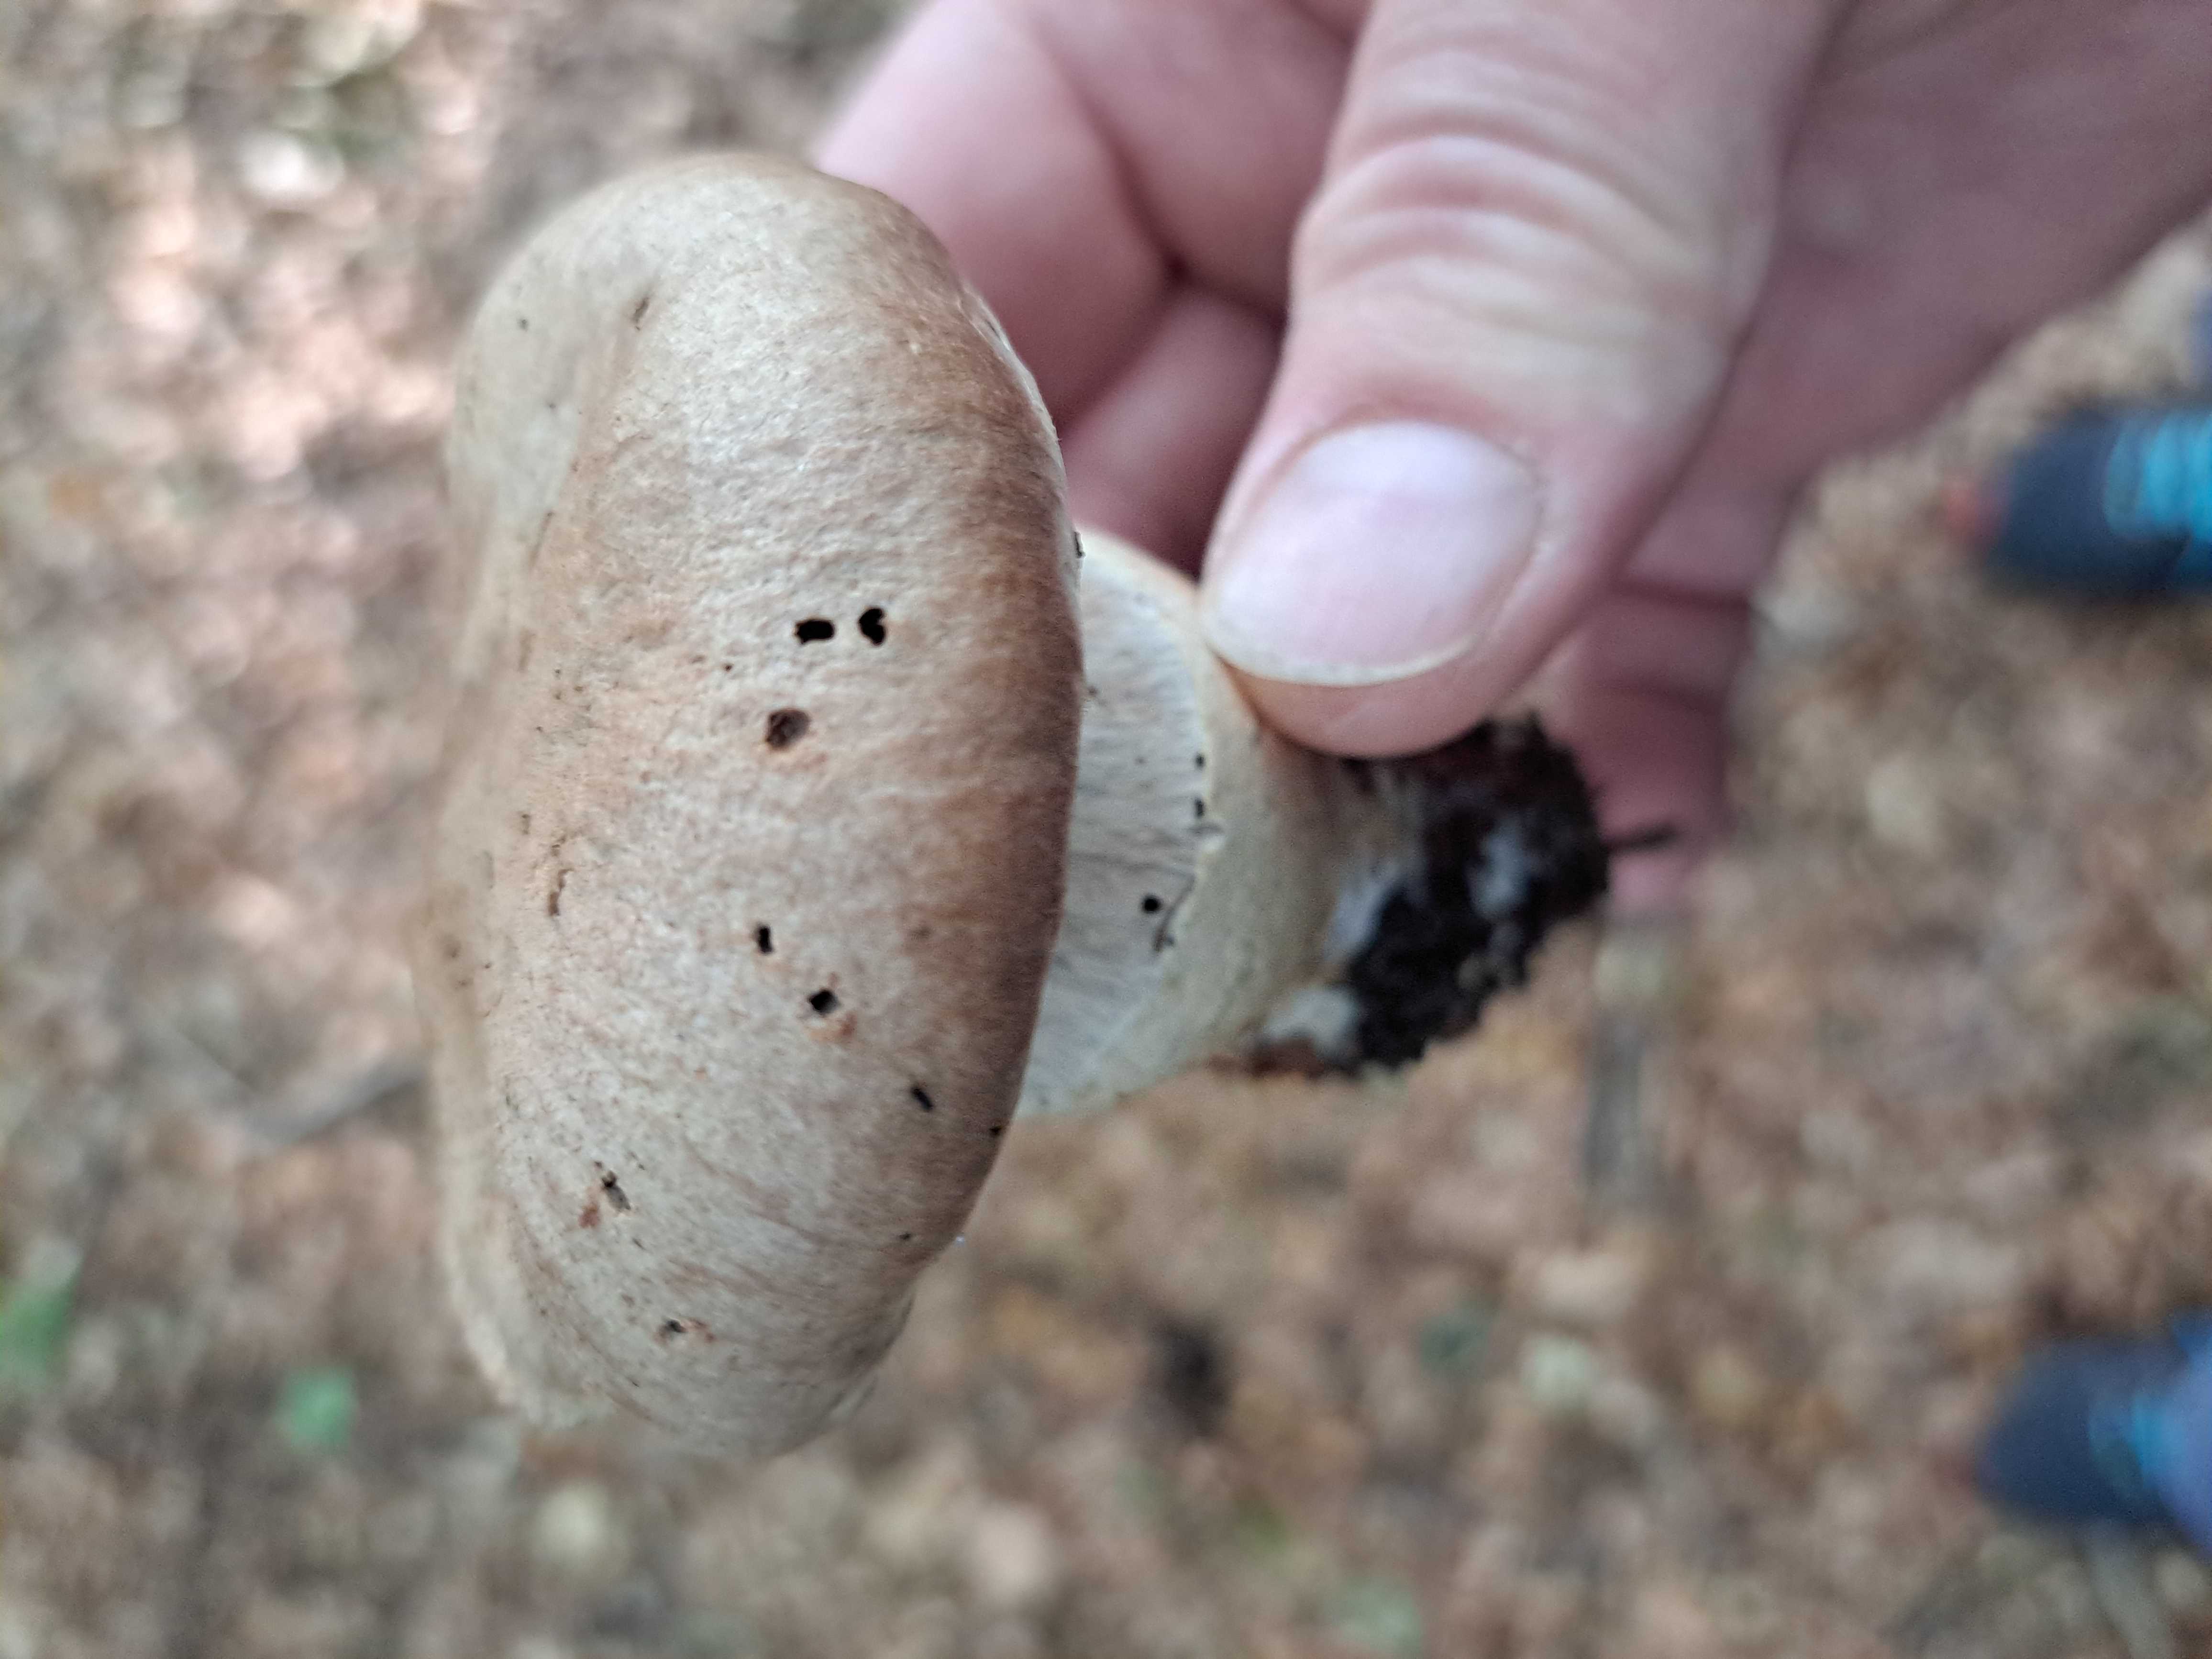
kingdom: Fungi
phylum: Basidiomycota
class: Agaricomycetes
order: Agaricales
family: Cortinariaceae
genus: Cortinarius
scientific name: Cortinarius torvus
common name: champignonagtig slørhat
